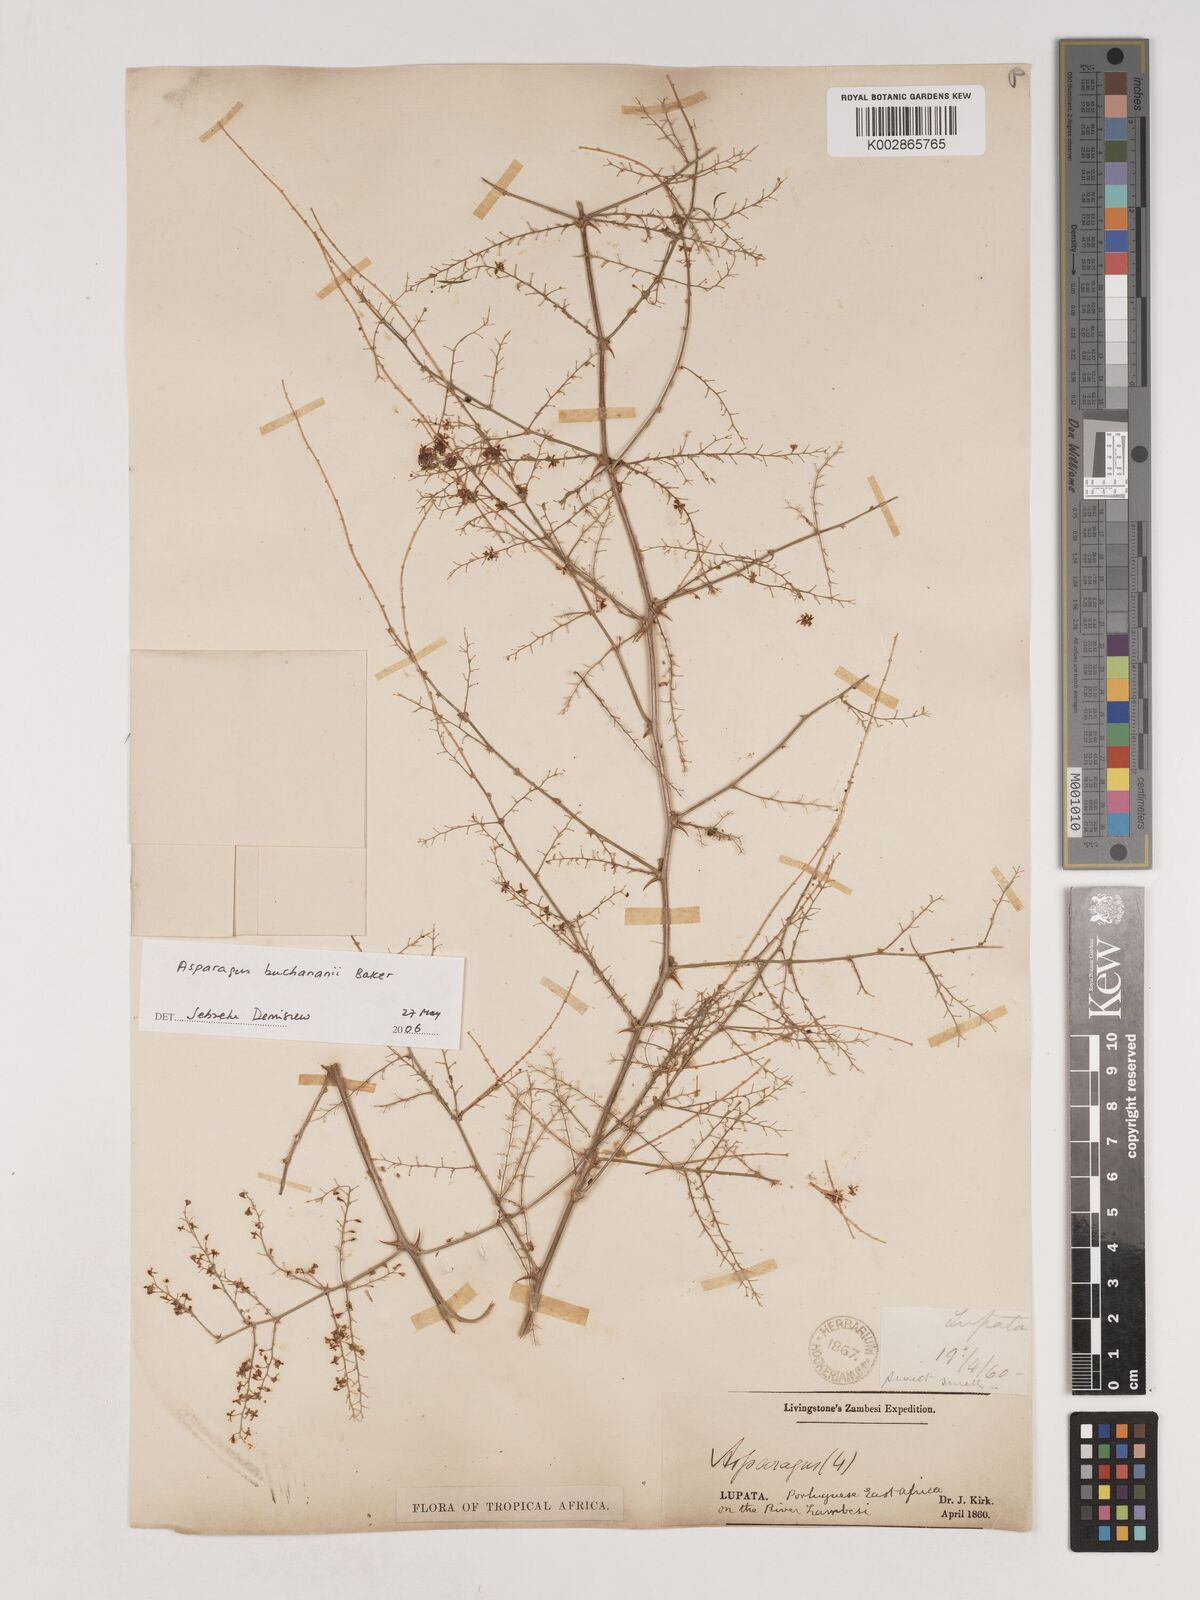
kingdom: Plantae
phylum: Tracheophyta
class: Liliopsida
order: Asparagales
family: Asparagaceae
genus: Asparagus
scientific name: Asparagus buchananii
